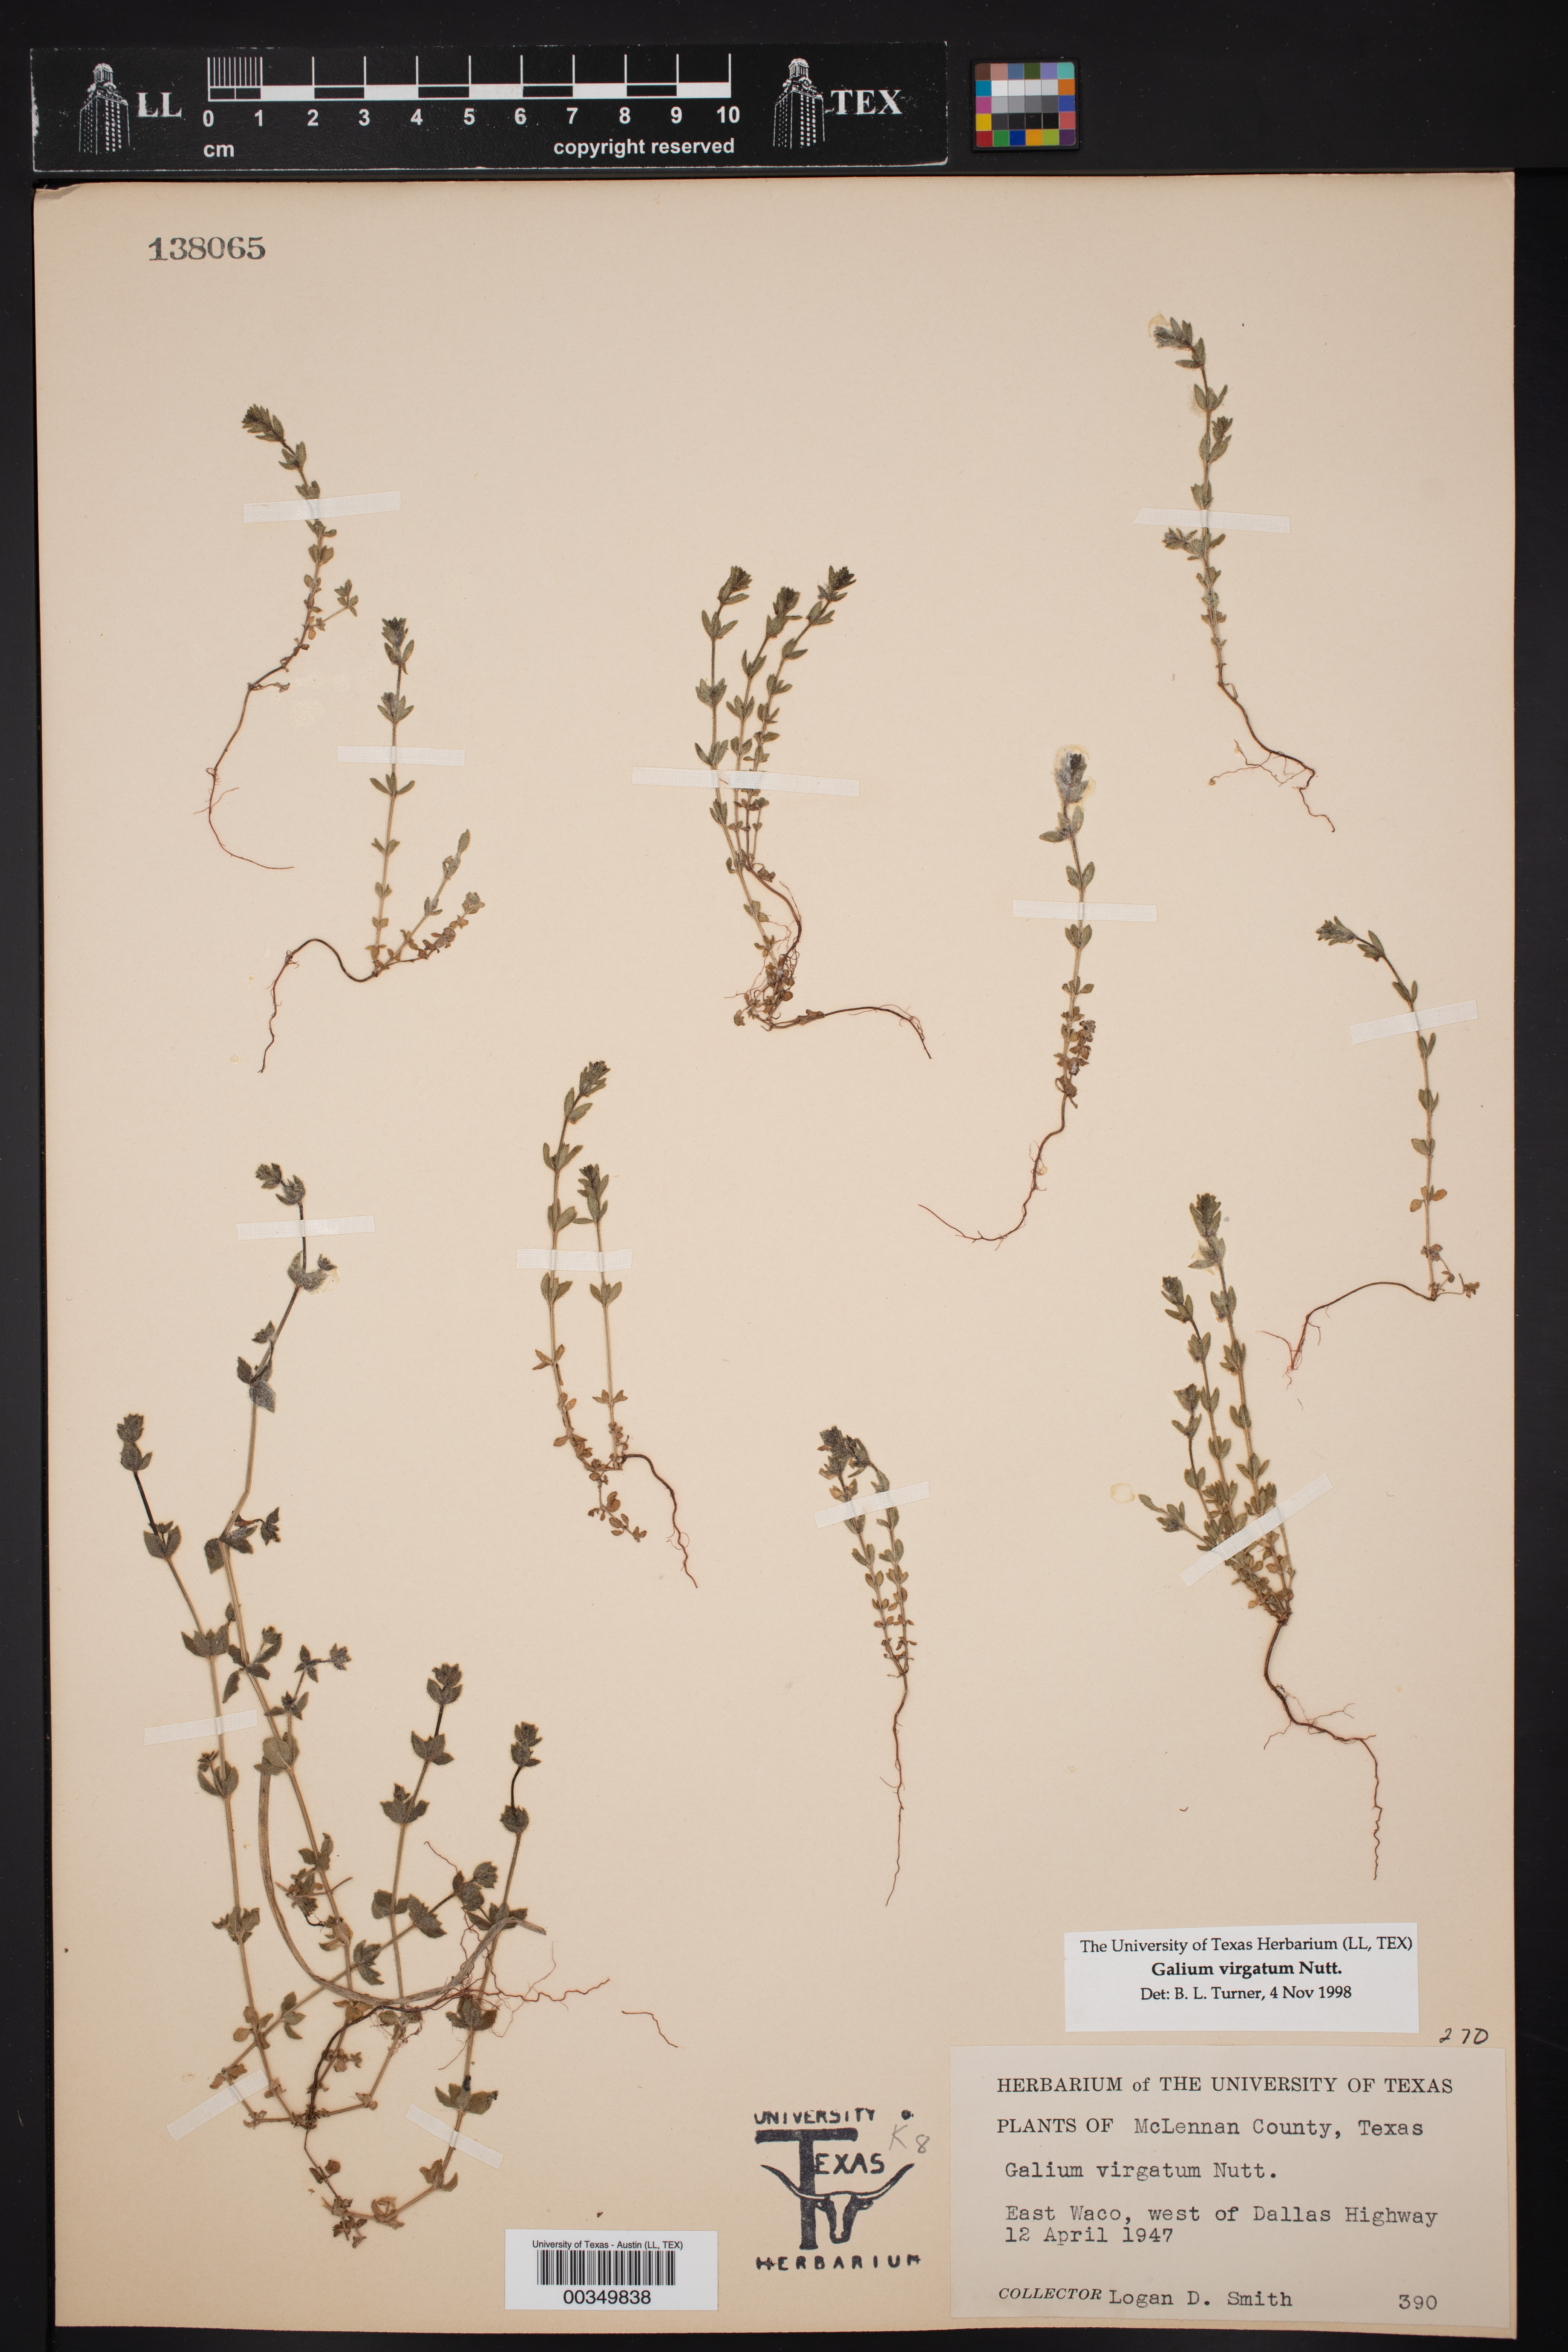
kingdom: Plantae
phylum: Tracheophyta
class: Magnoliopsida
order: Gentianales
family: Rubiaceae
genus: Galium
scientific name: Galium virgatum
